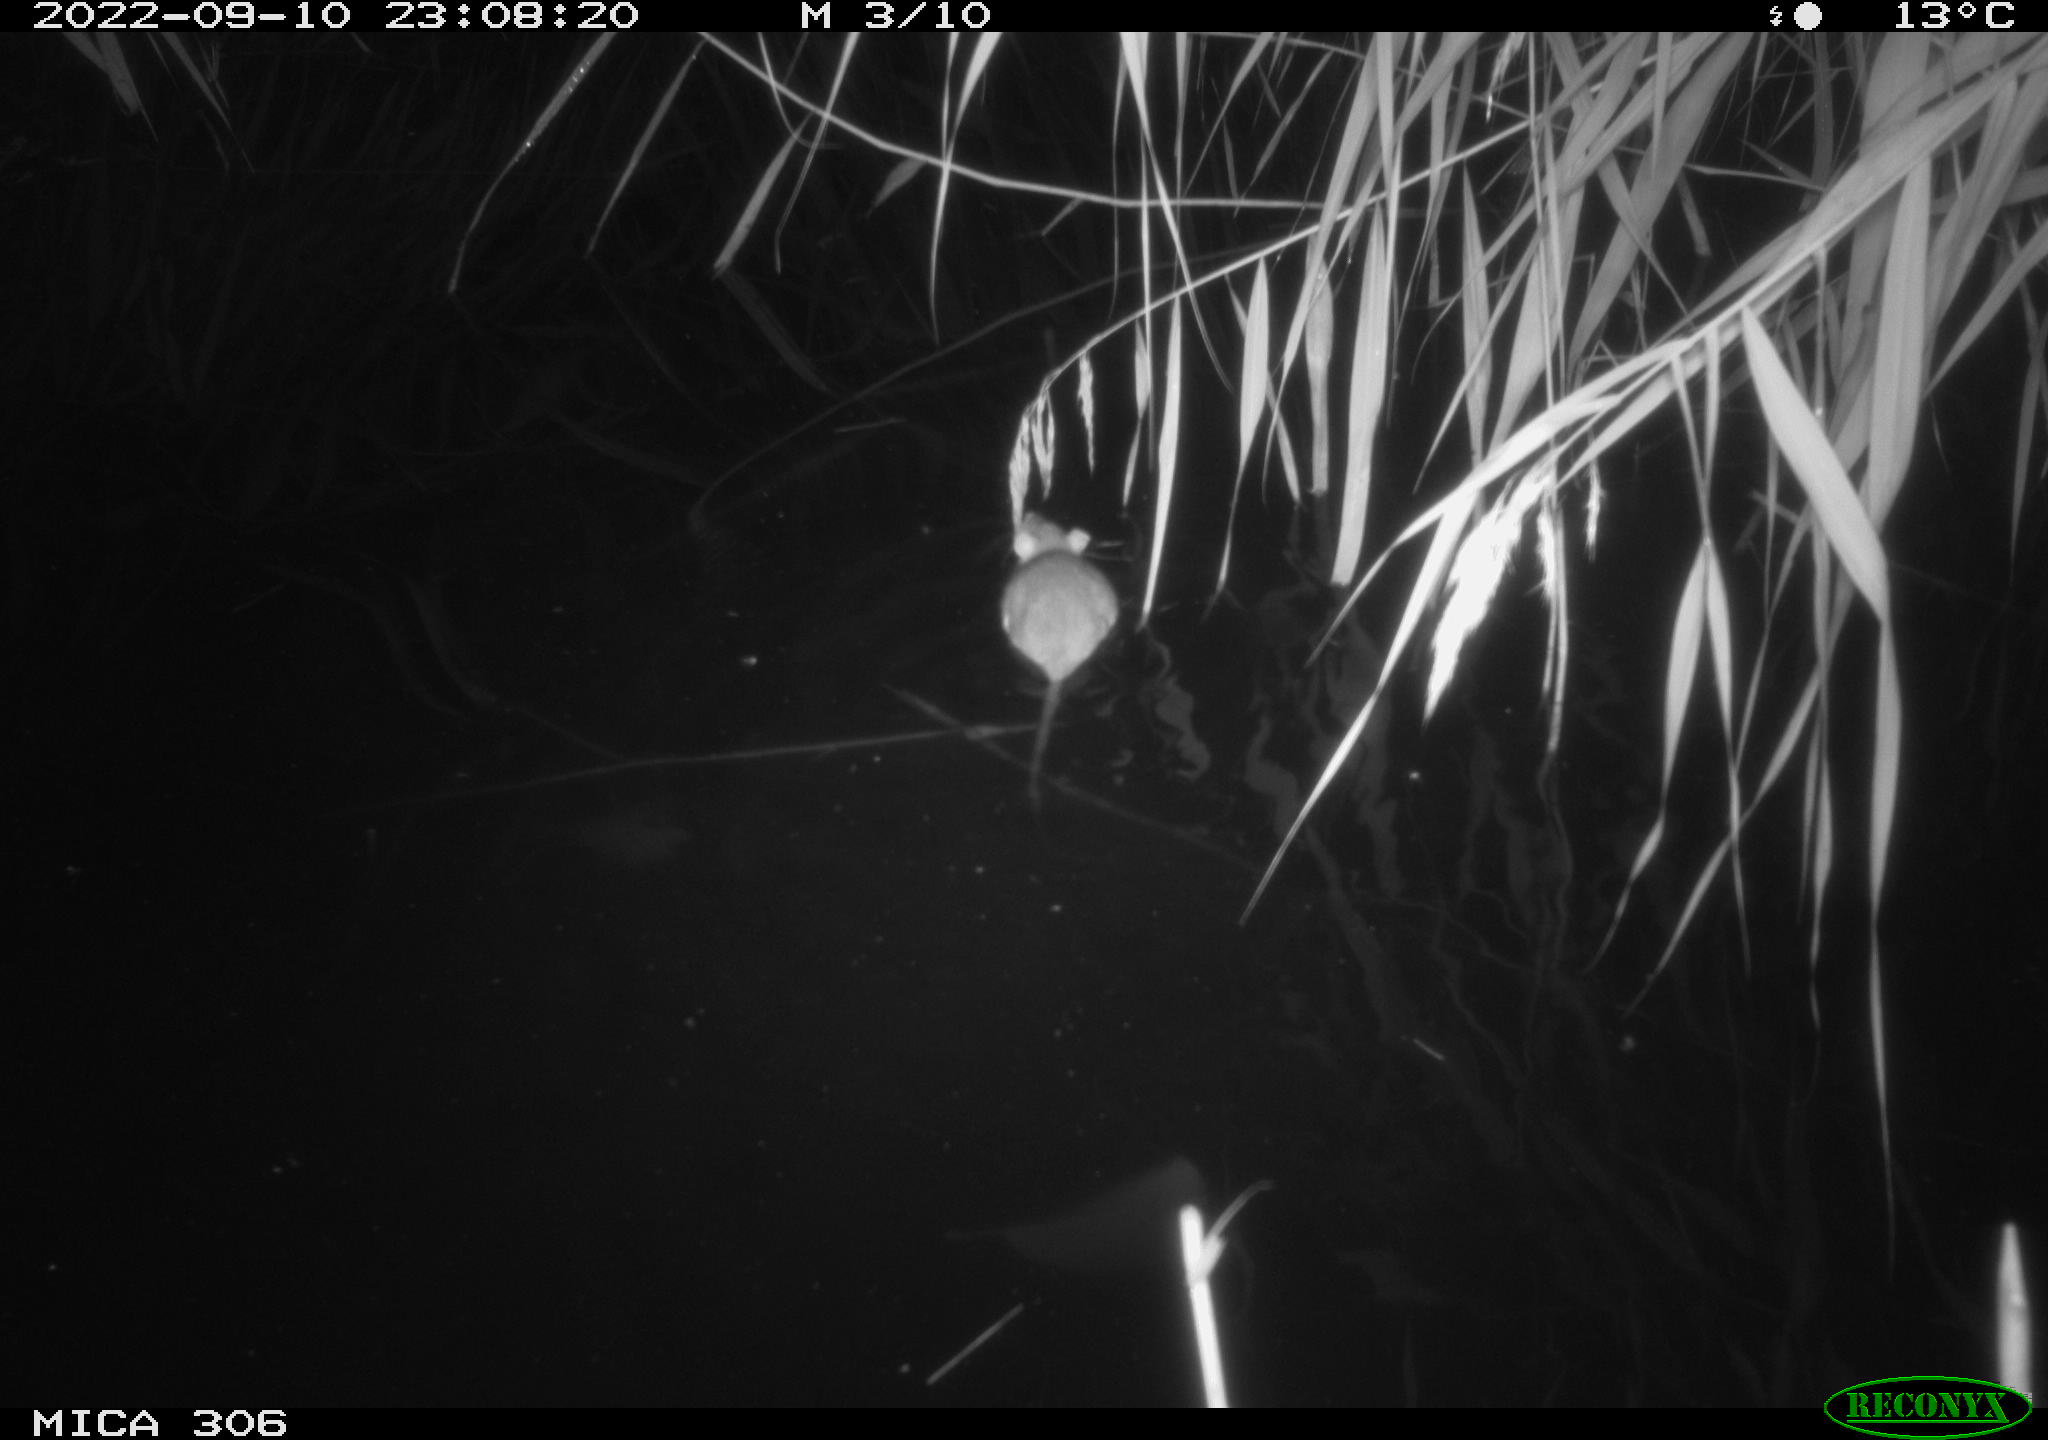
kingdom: Animalia
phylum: Chordata
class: Mammalia
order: Rodentia
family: Muridae
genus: Rattus
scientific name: Rattus norvegicus
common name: Brown rat
